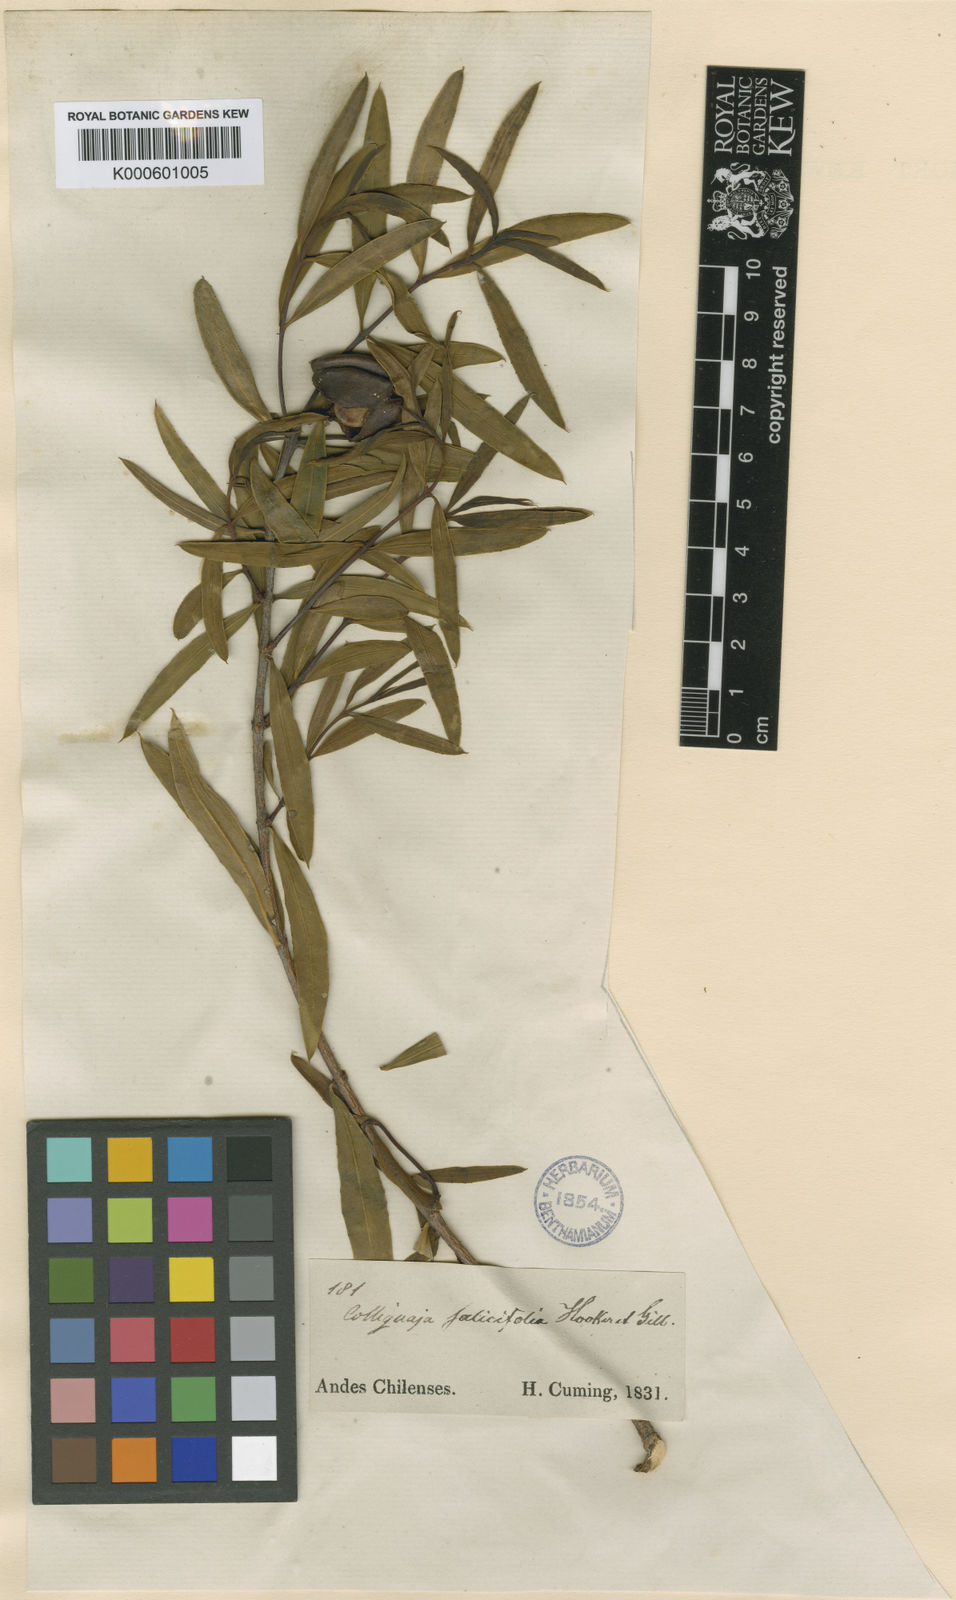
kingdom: Plantae
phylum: Tracheophyta
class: Magnoliopsida
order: Malpighiales
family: Euphorbiaceae
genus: Colliguaja
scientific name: Colliguaja salicifolia
